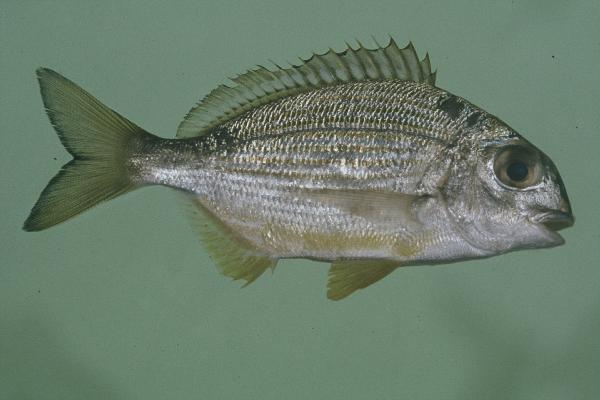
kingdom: Animalia
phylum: Chordata
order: Perciformes
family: Sparidae
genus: Rhabdosargus
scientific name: Rhabdosargus thorpei
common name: Bigeye stumpnose
